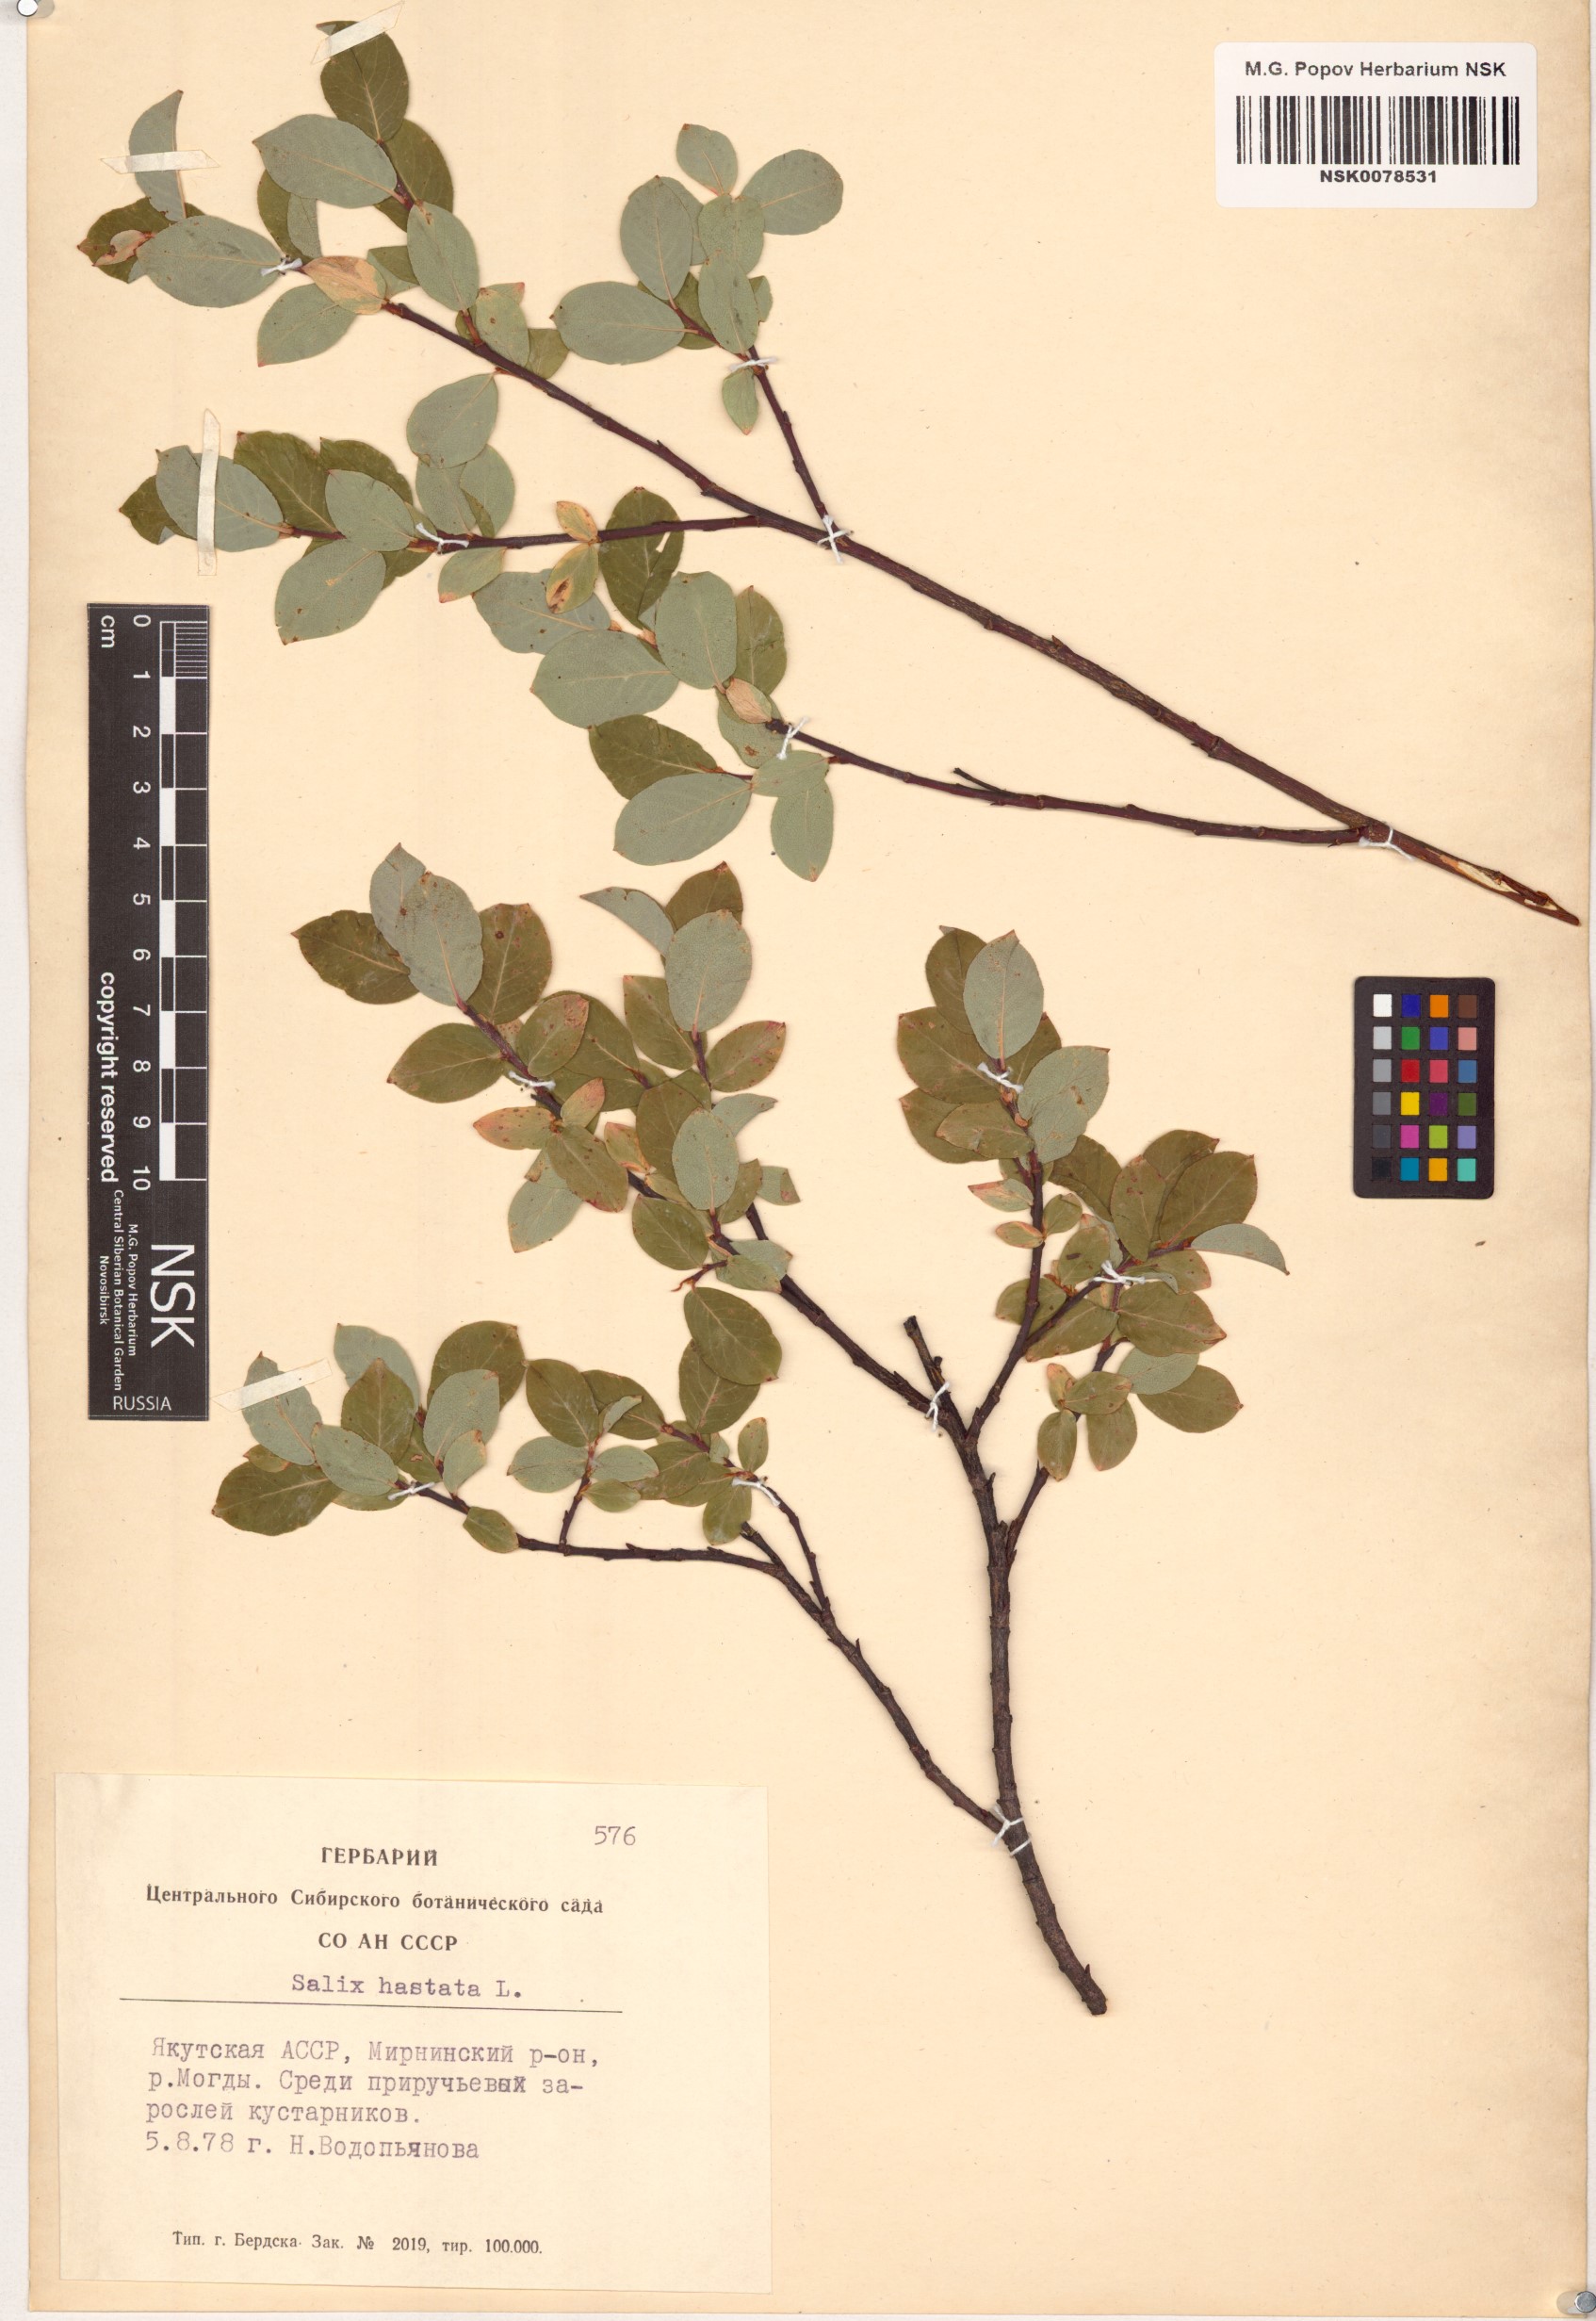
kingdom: Plantae
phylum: Tracheophyta
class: Magnoliopsida
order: Malpighiales
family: Salicaceae
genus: Salix
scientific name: Salix hastata
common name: Halberd willow
